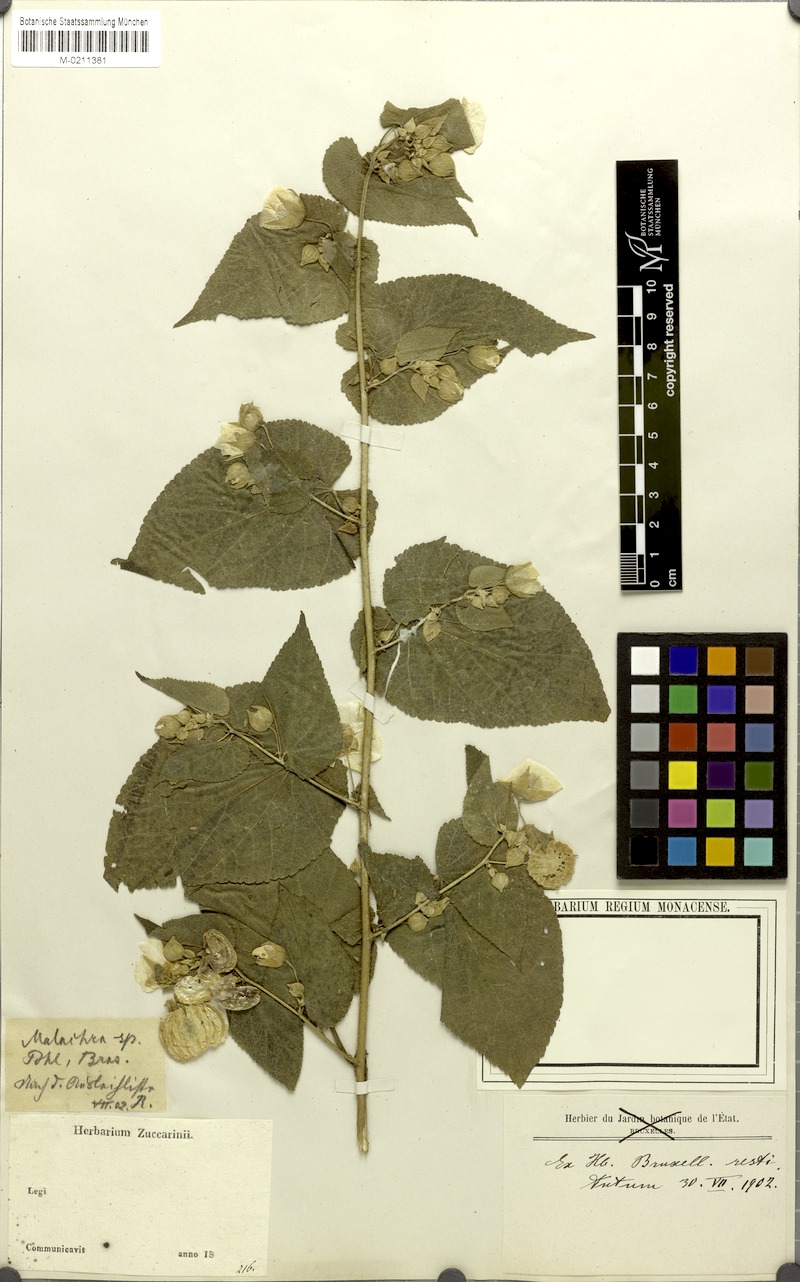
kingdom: Plantae
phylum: Tracheophyta
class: Magnoliopsida
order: Malvales
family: Malvaceae
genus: Malachra
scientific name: Malachra
